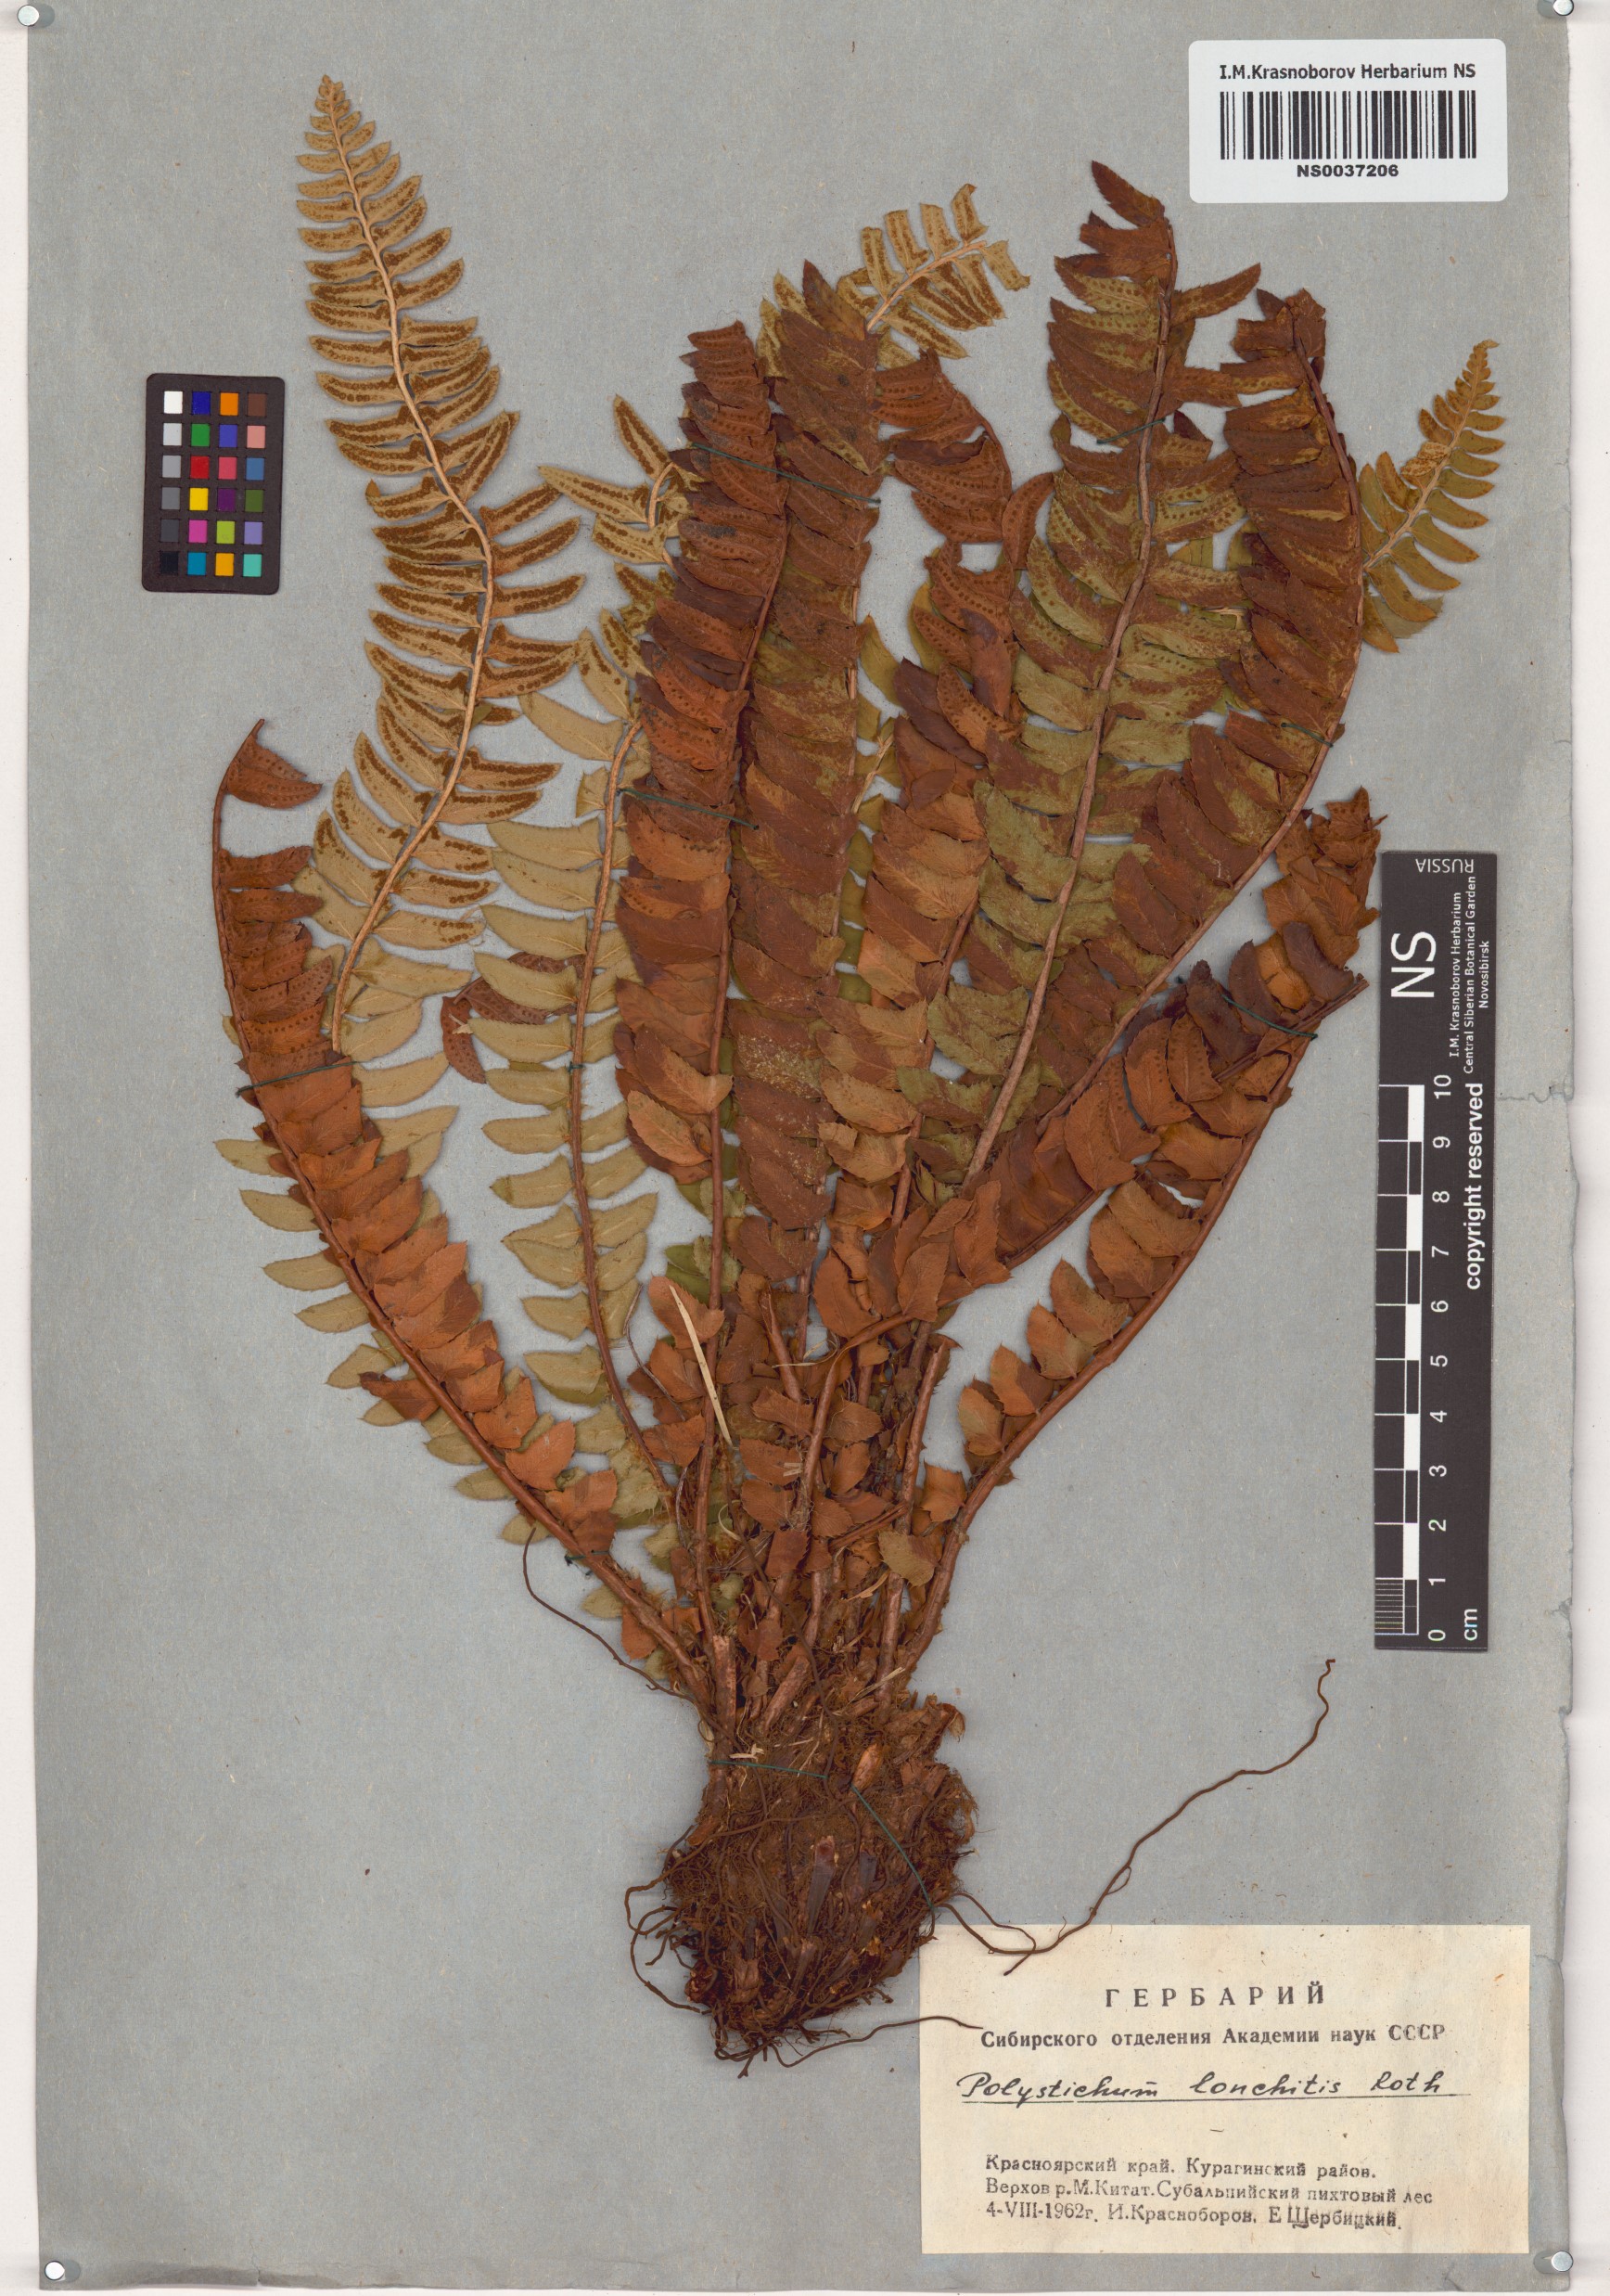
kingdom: Plantae
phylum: Tracheophyta
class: Polypodiopsida
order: Polypodiales
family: Dryopteridaceae
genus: Polystichum
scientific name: Polystichum lonchitis
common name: Holly fern
